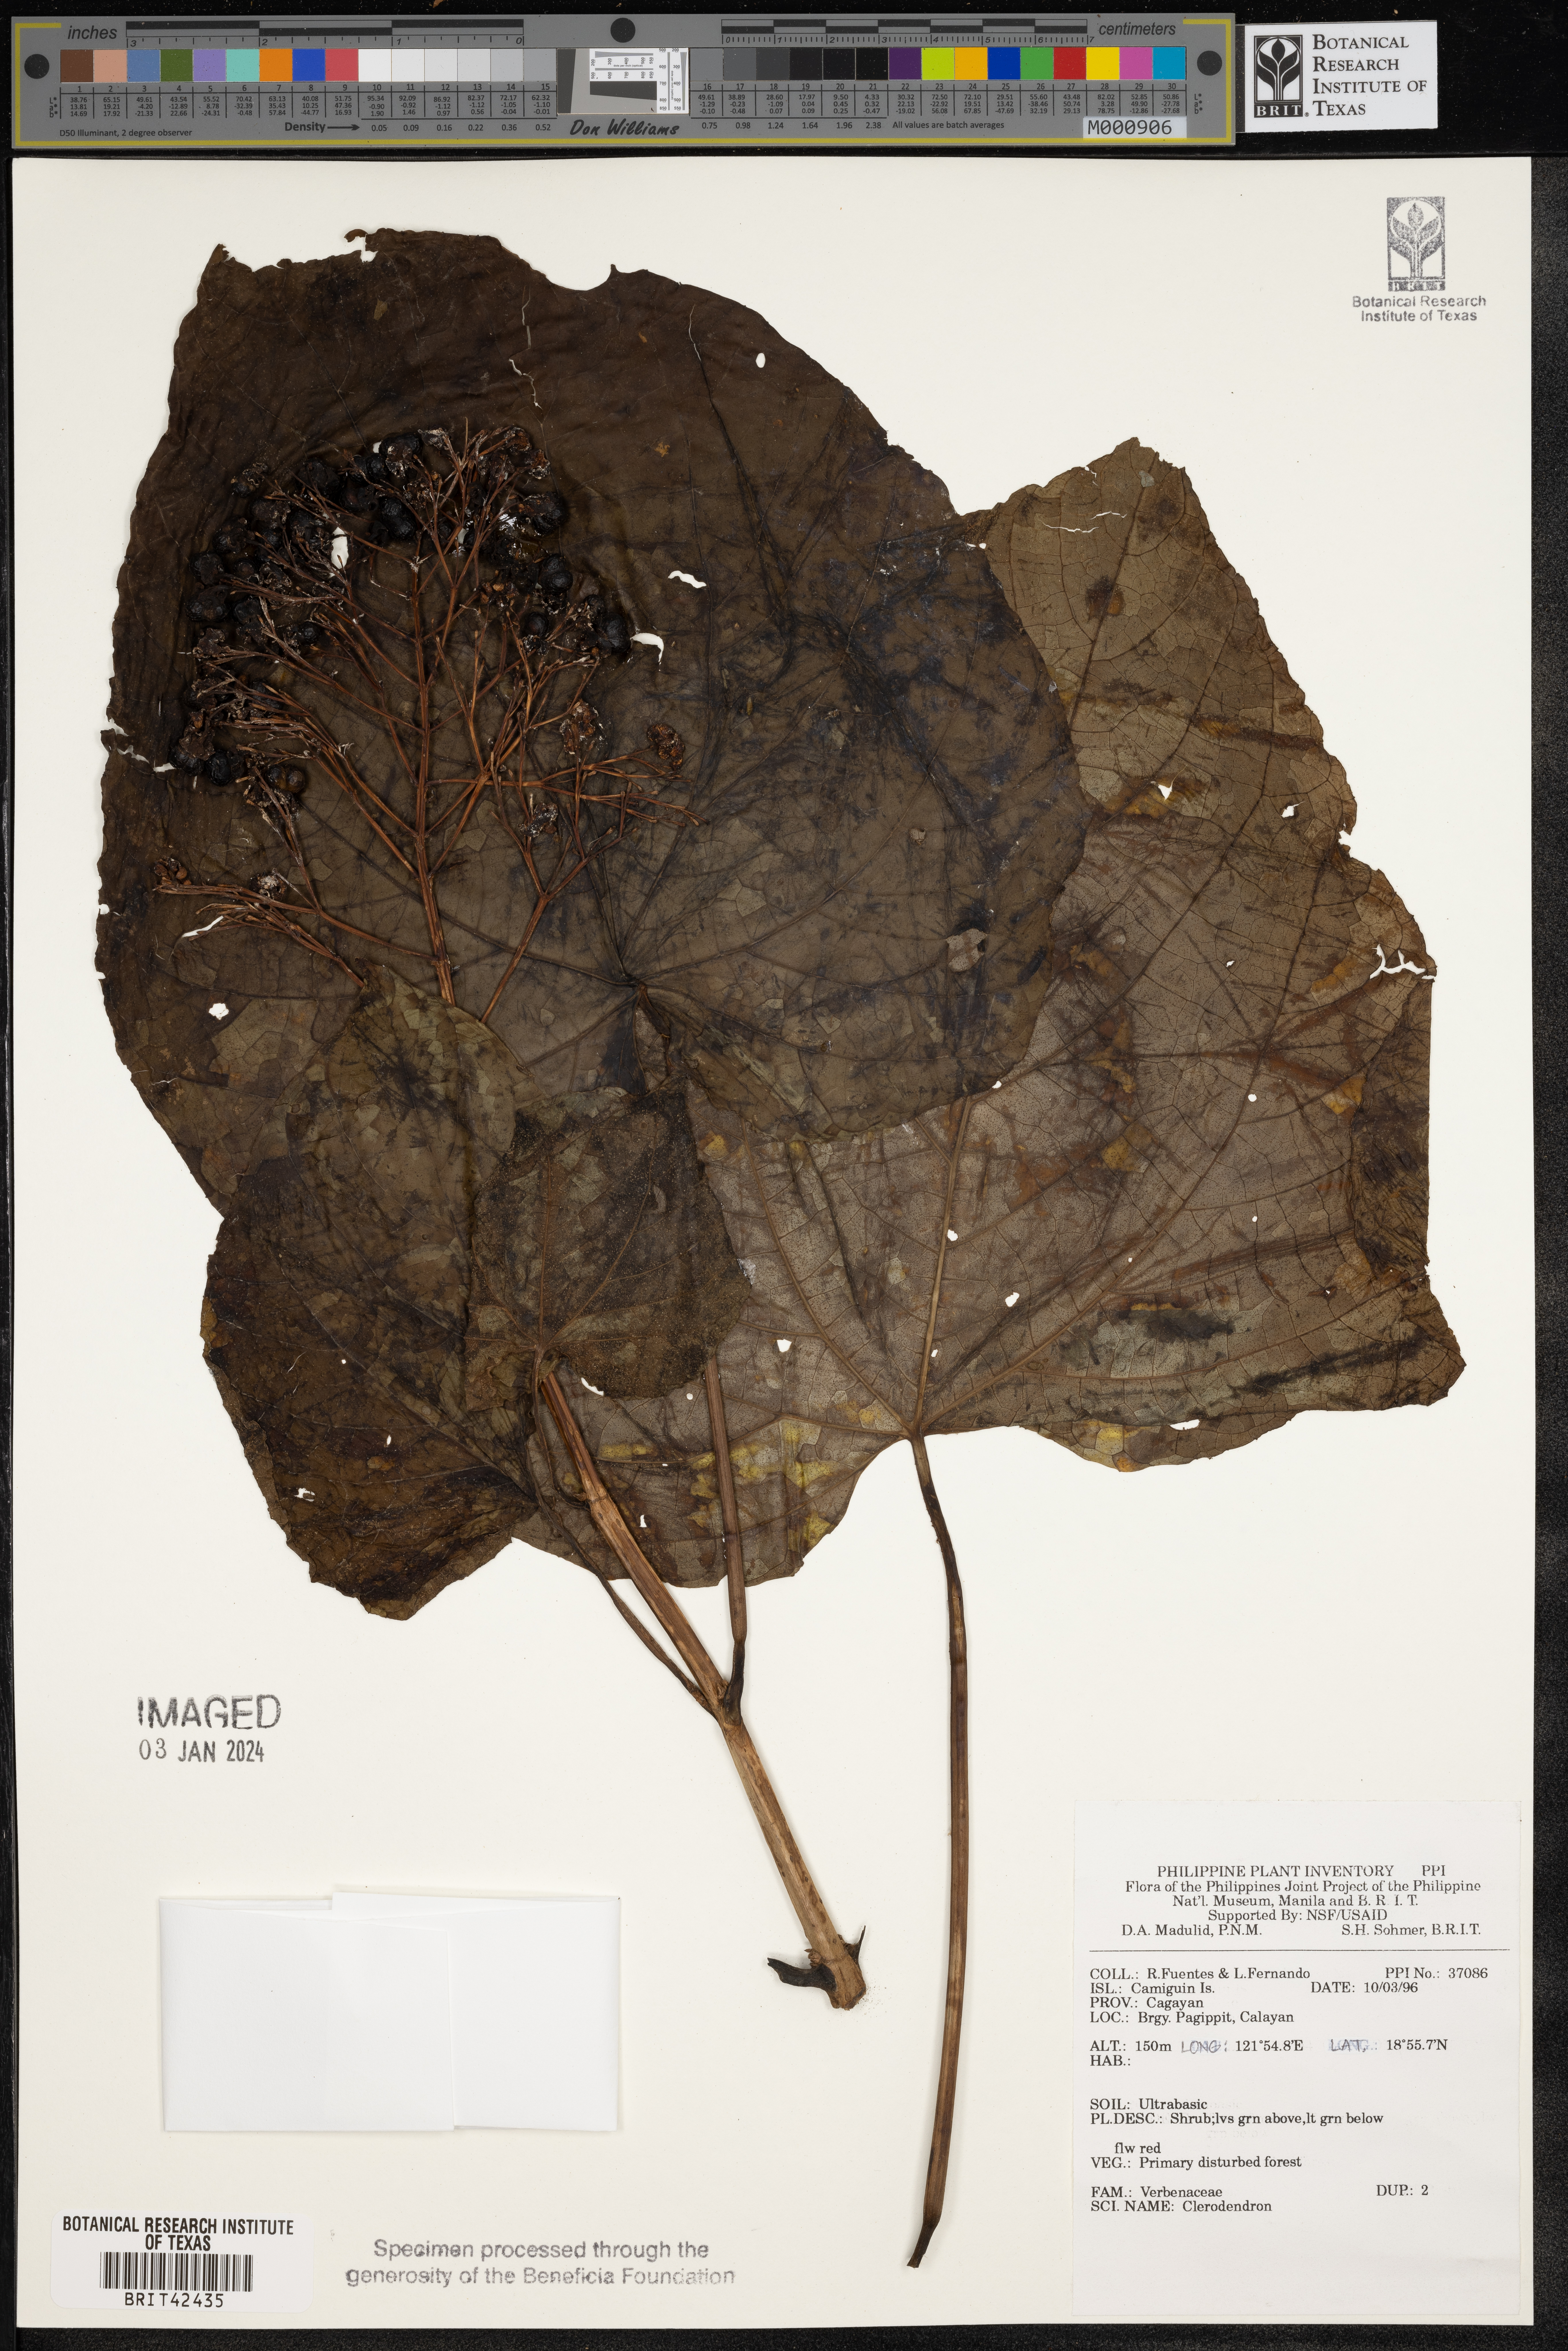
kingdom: Plantae
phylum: Tracheophyta
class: Magnoliopsida
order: Lamiales
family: Lamiaceae
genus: Clerodendrum
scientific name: Clerodendrum
